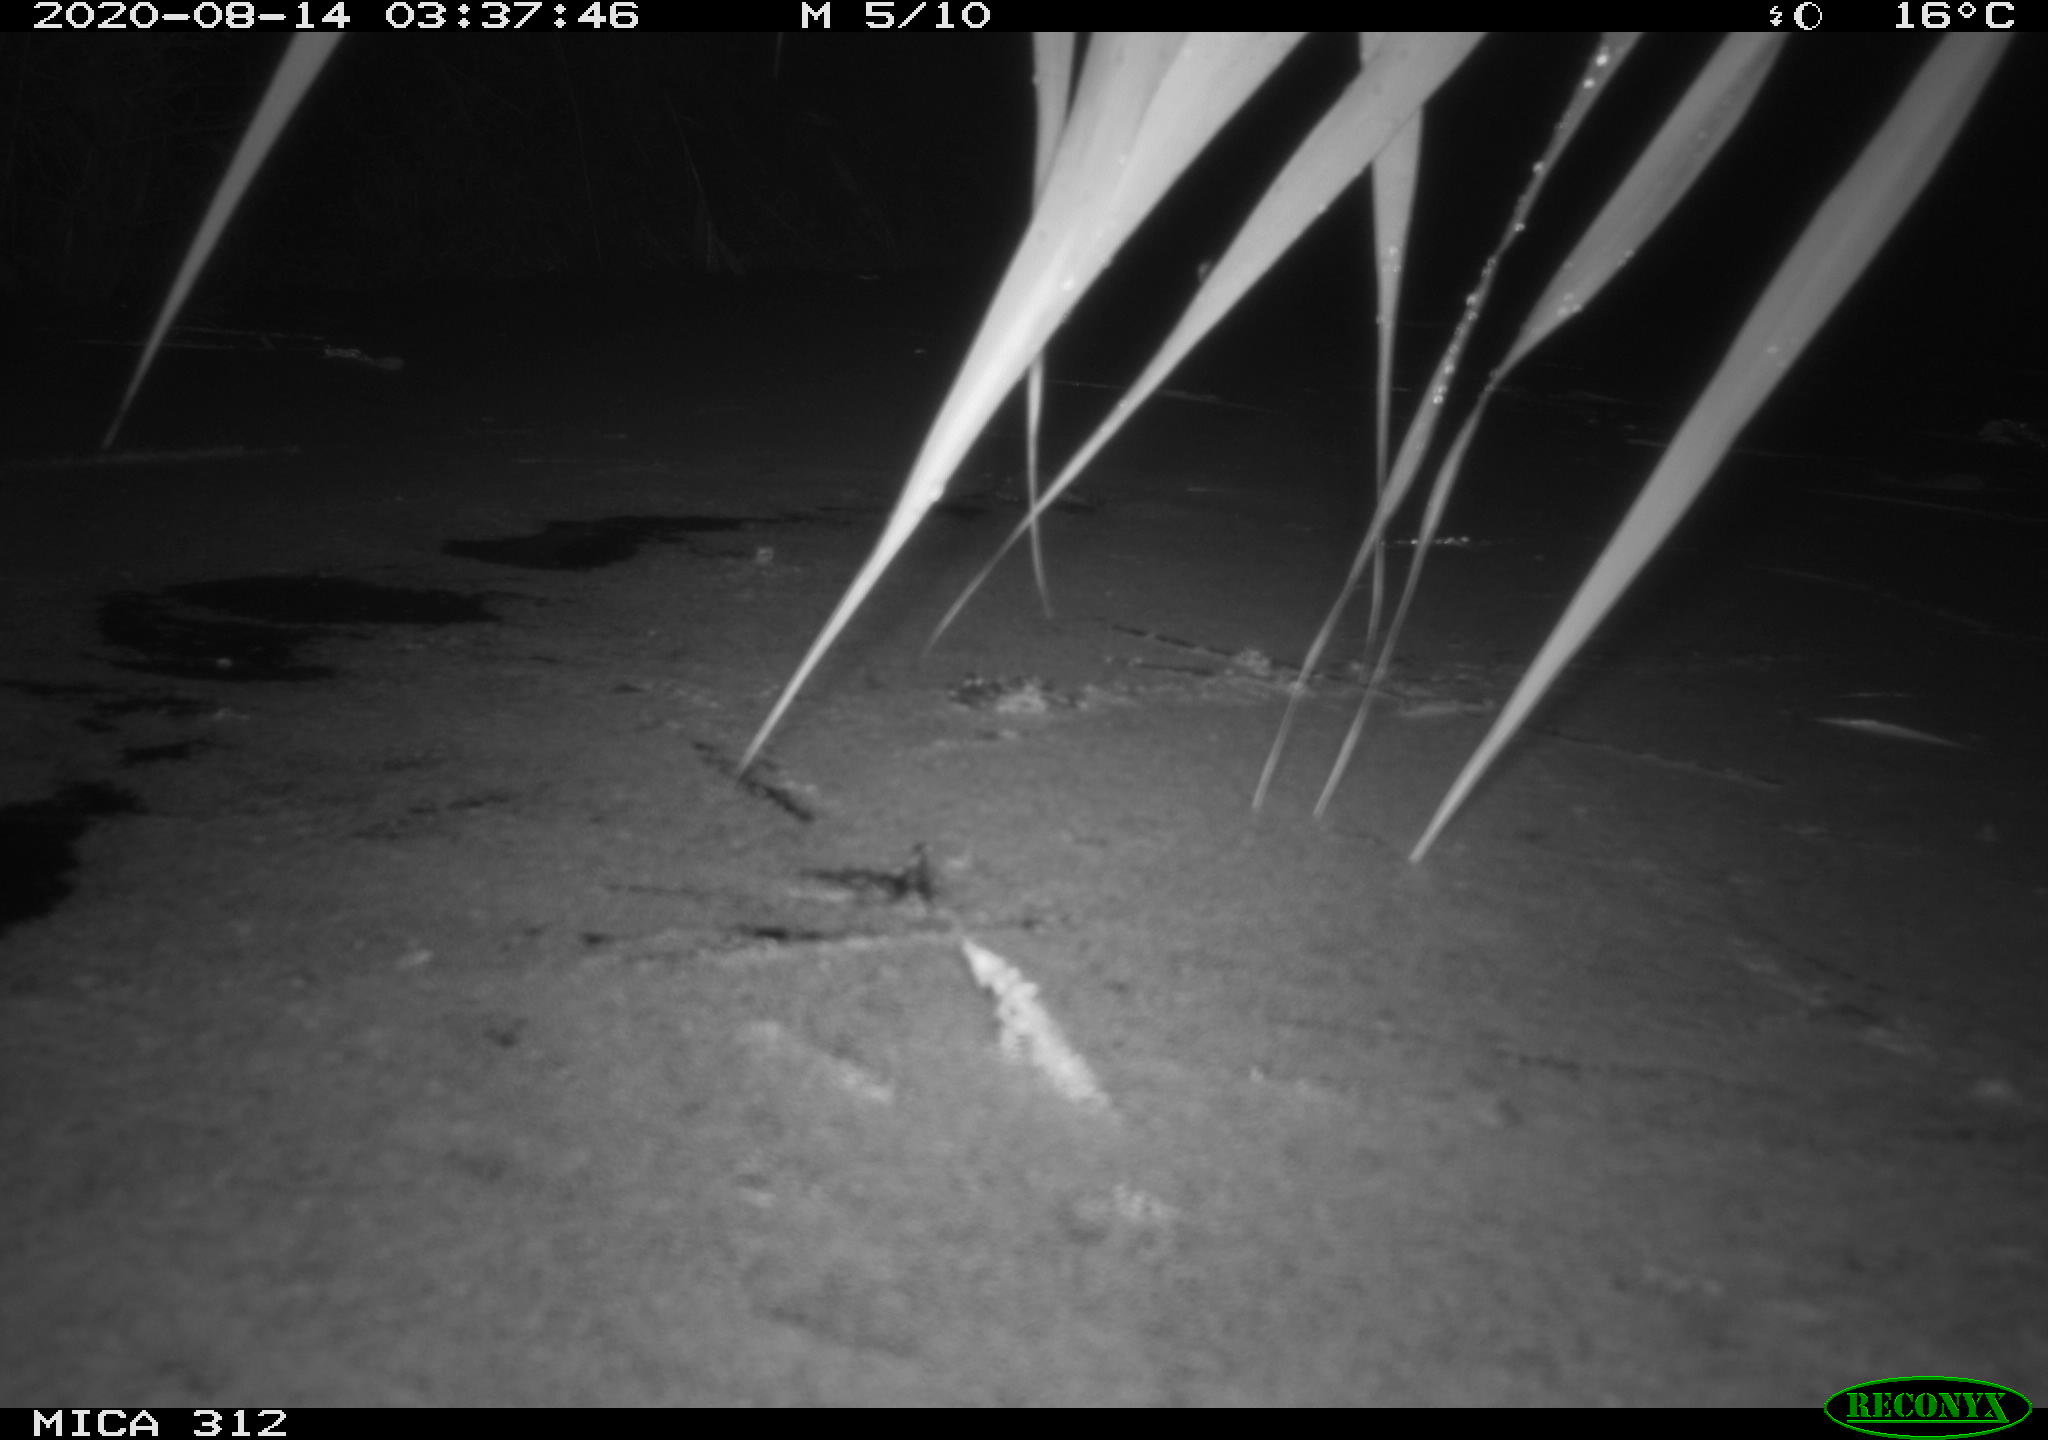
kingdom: Animalia
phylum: Chordata
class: Mammalia
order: Rodentia
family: Cricetidae
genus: Ondatra
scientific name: Ondatra zibethicus
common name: Muskrat
